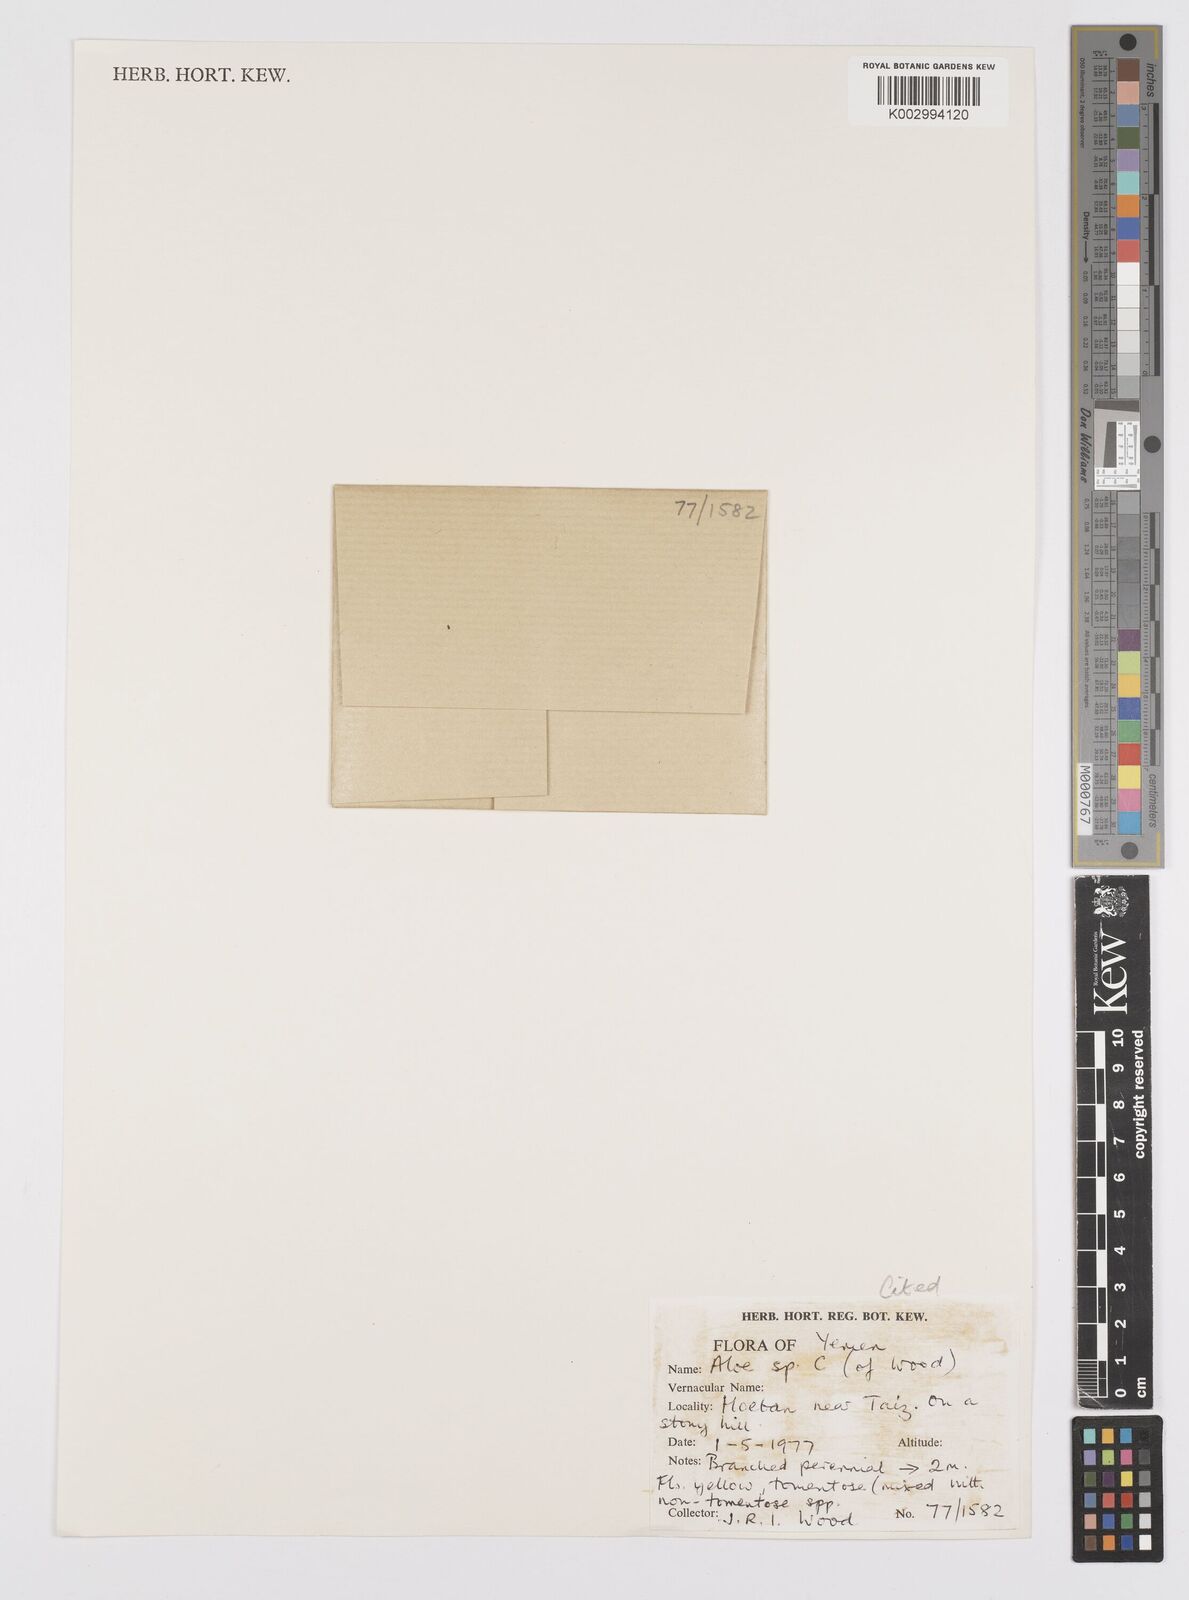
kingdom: Plantae
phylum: Tracheophyta
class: Liliopsida
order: Asparagales
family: Asphodelaceae
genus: Aloe
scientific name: Aloe lavranosii
